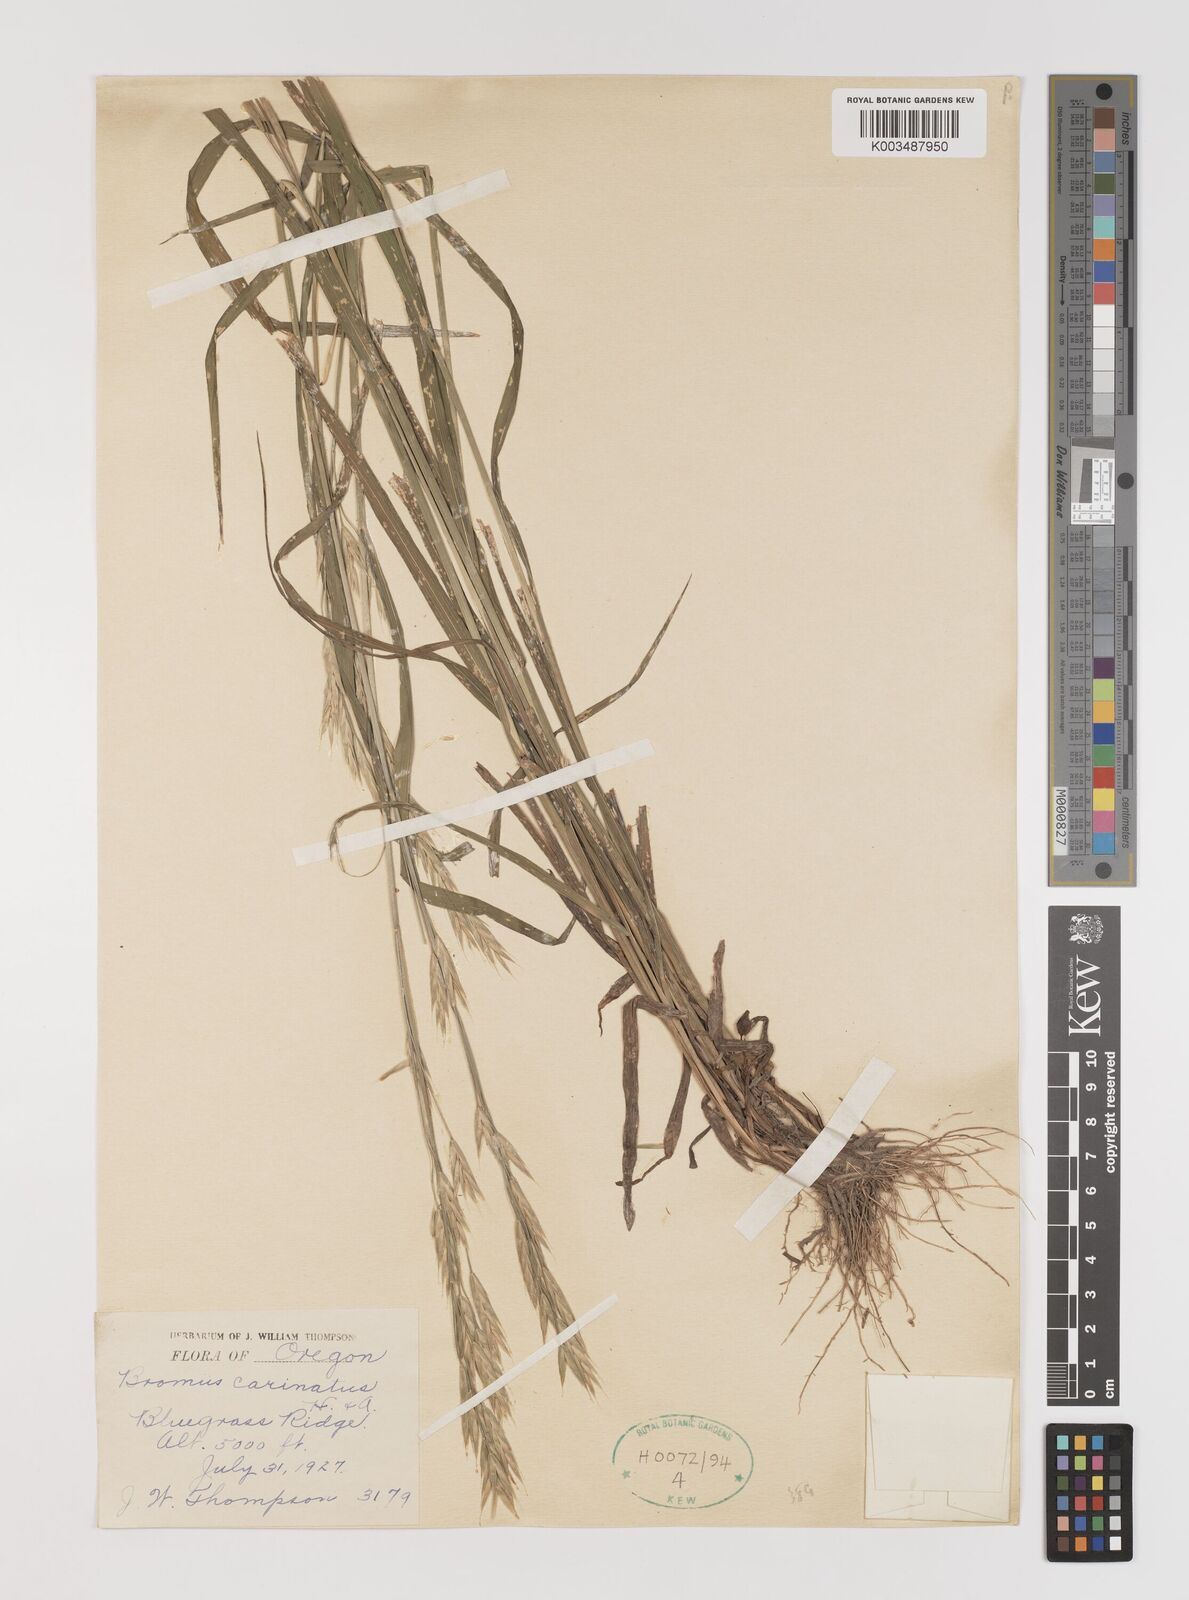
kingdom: Plantae
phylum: Tracheophyta
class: Liliopsida
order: Poales
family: Poaceae
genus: Bromus
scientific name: Bromus carinatus
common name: Mountain brome
